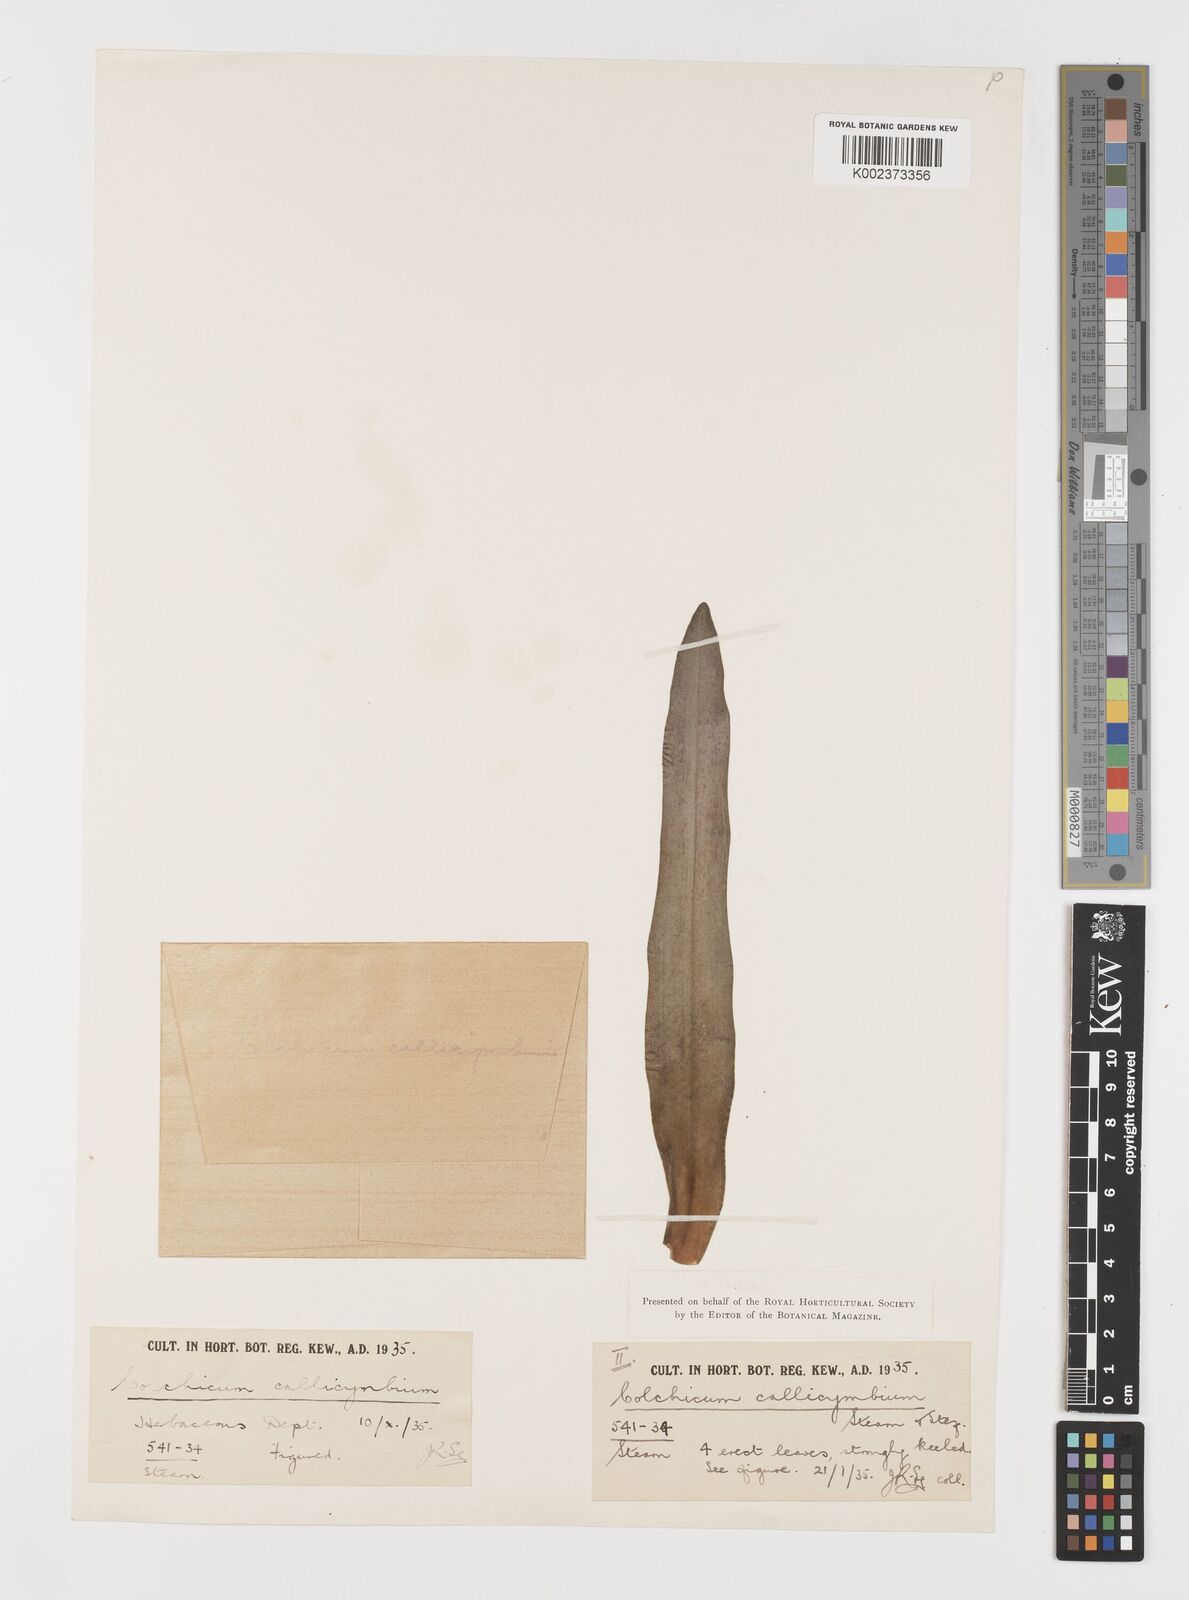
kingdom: Plantae
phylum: Tracheophyta
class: Liliopsida
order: Liliales
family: Colchicaceae
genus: Colchicum
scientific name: Colchicum haynaldii
